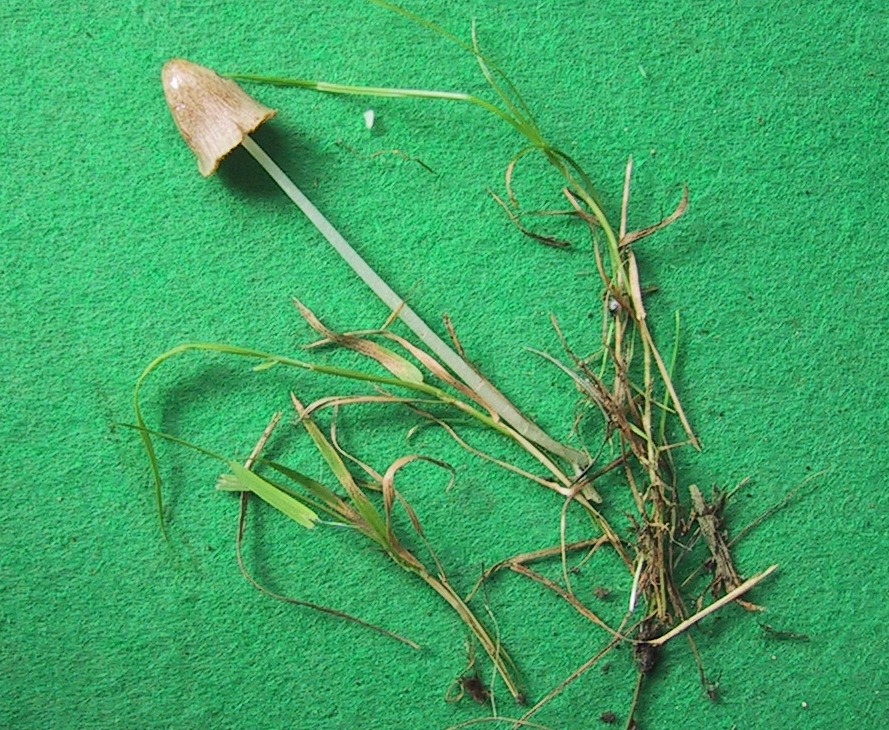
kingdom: Fungi
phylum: Basidiomycota
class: Agaricomycetes
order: Agaricales
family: Bolbitiaceae
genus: Conocybe
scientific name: Conocybe apala
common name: mælkehvid keglehat
